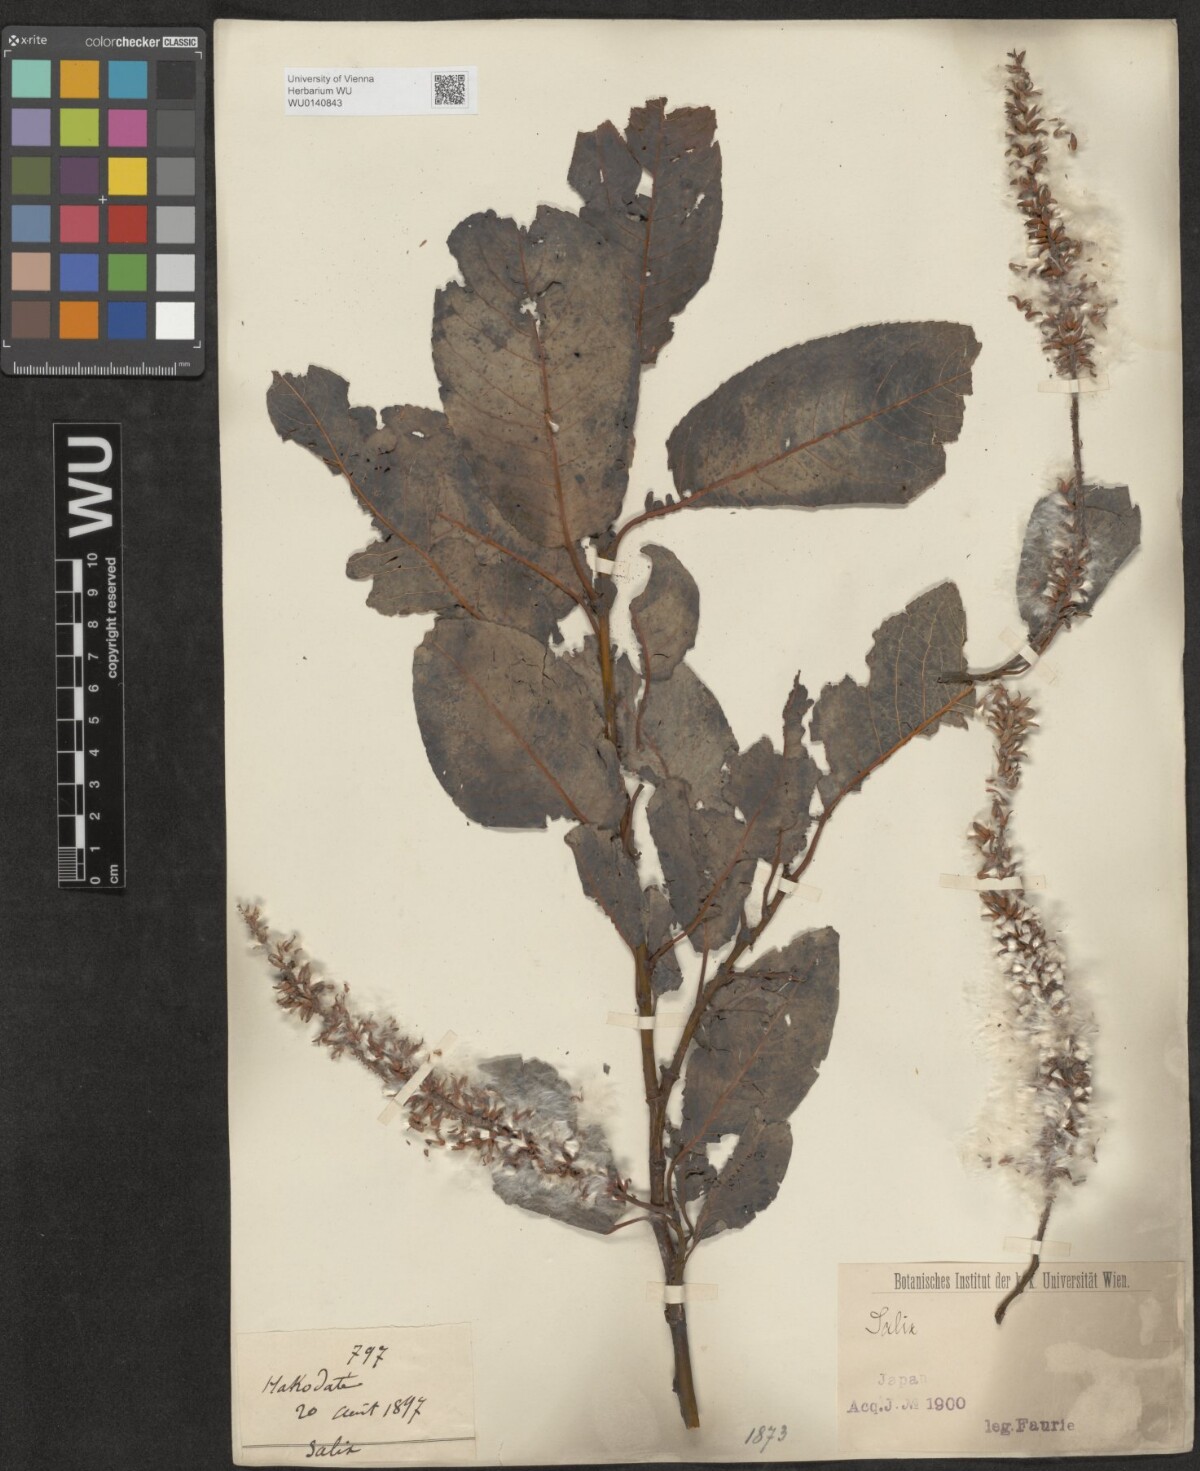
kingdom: Plantae
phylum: Tracheophyta
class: Magnoliopsida
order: Malpighiales
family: Salicaceae
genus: Salix
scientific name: Salix
